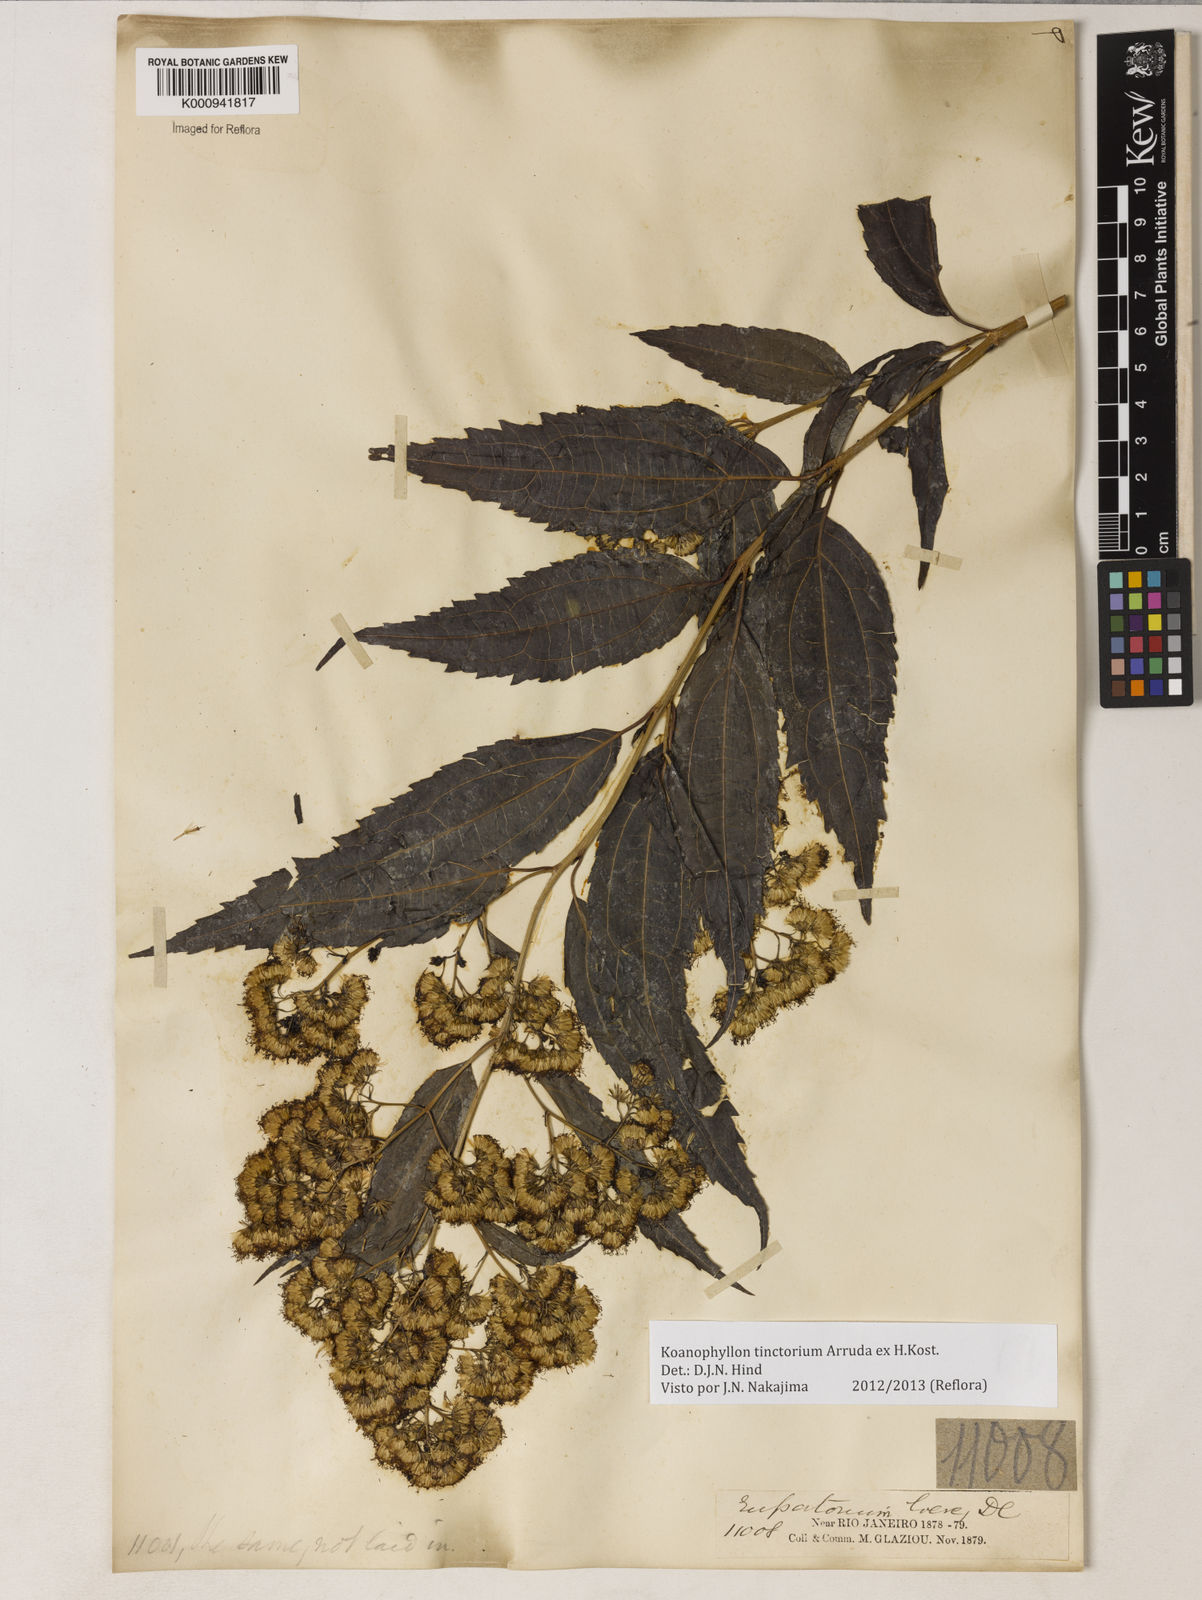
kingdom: Plantae
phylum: Tracheophyta
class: Magnoliopsida
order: Asterales
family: Asteraceae
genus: Koanophyllon
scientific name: Koanophyllon
